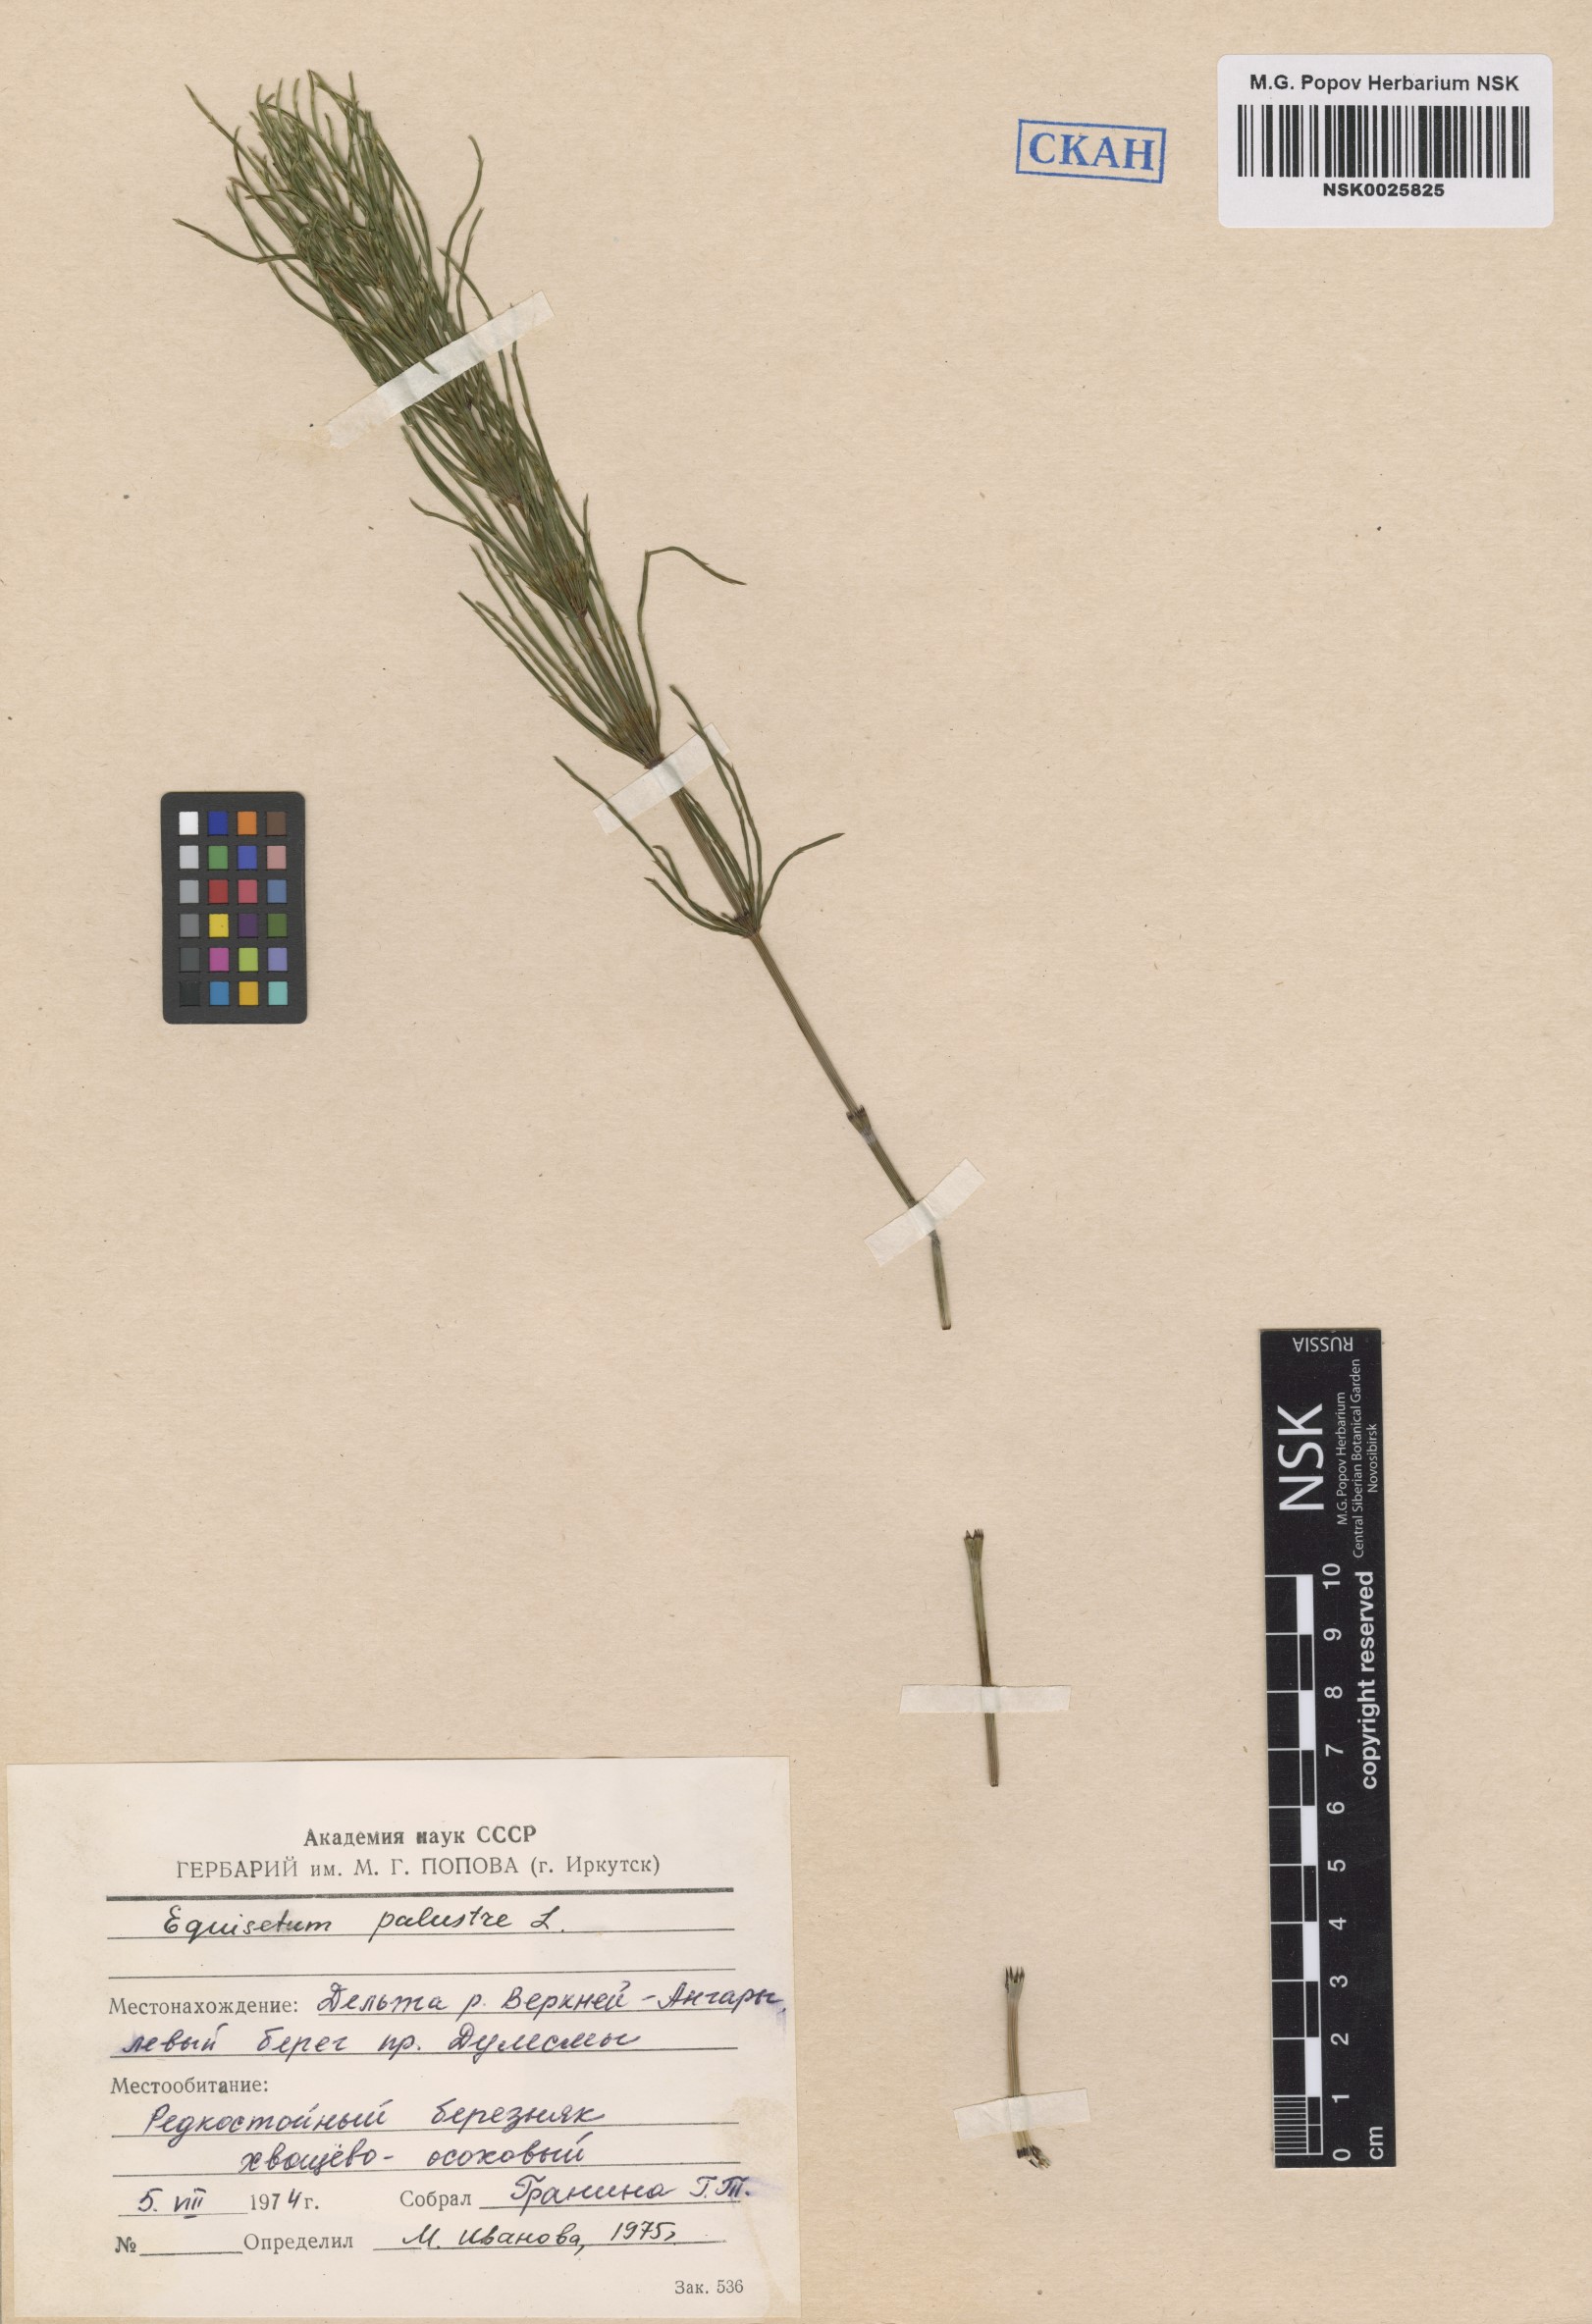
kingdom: Plantae
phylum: Tracheophyta
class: Polypodiopsida
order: Equisetales
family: Equisetaceae
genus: Equisetum
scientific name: Equisetum palustre
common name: Marsh horsetail
